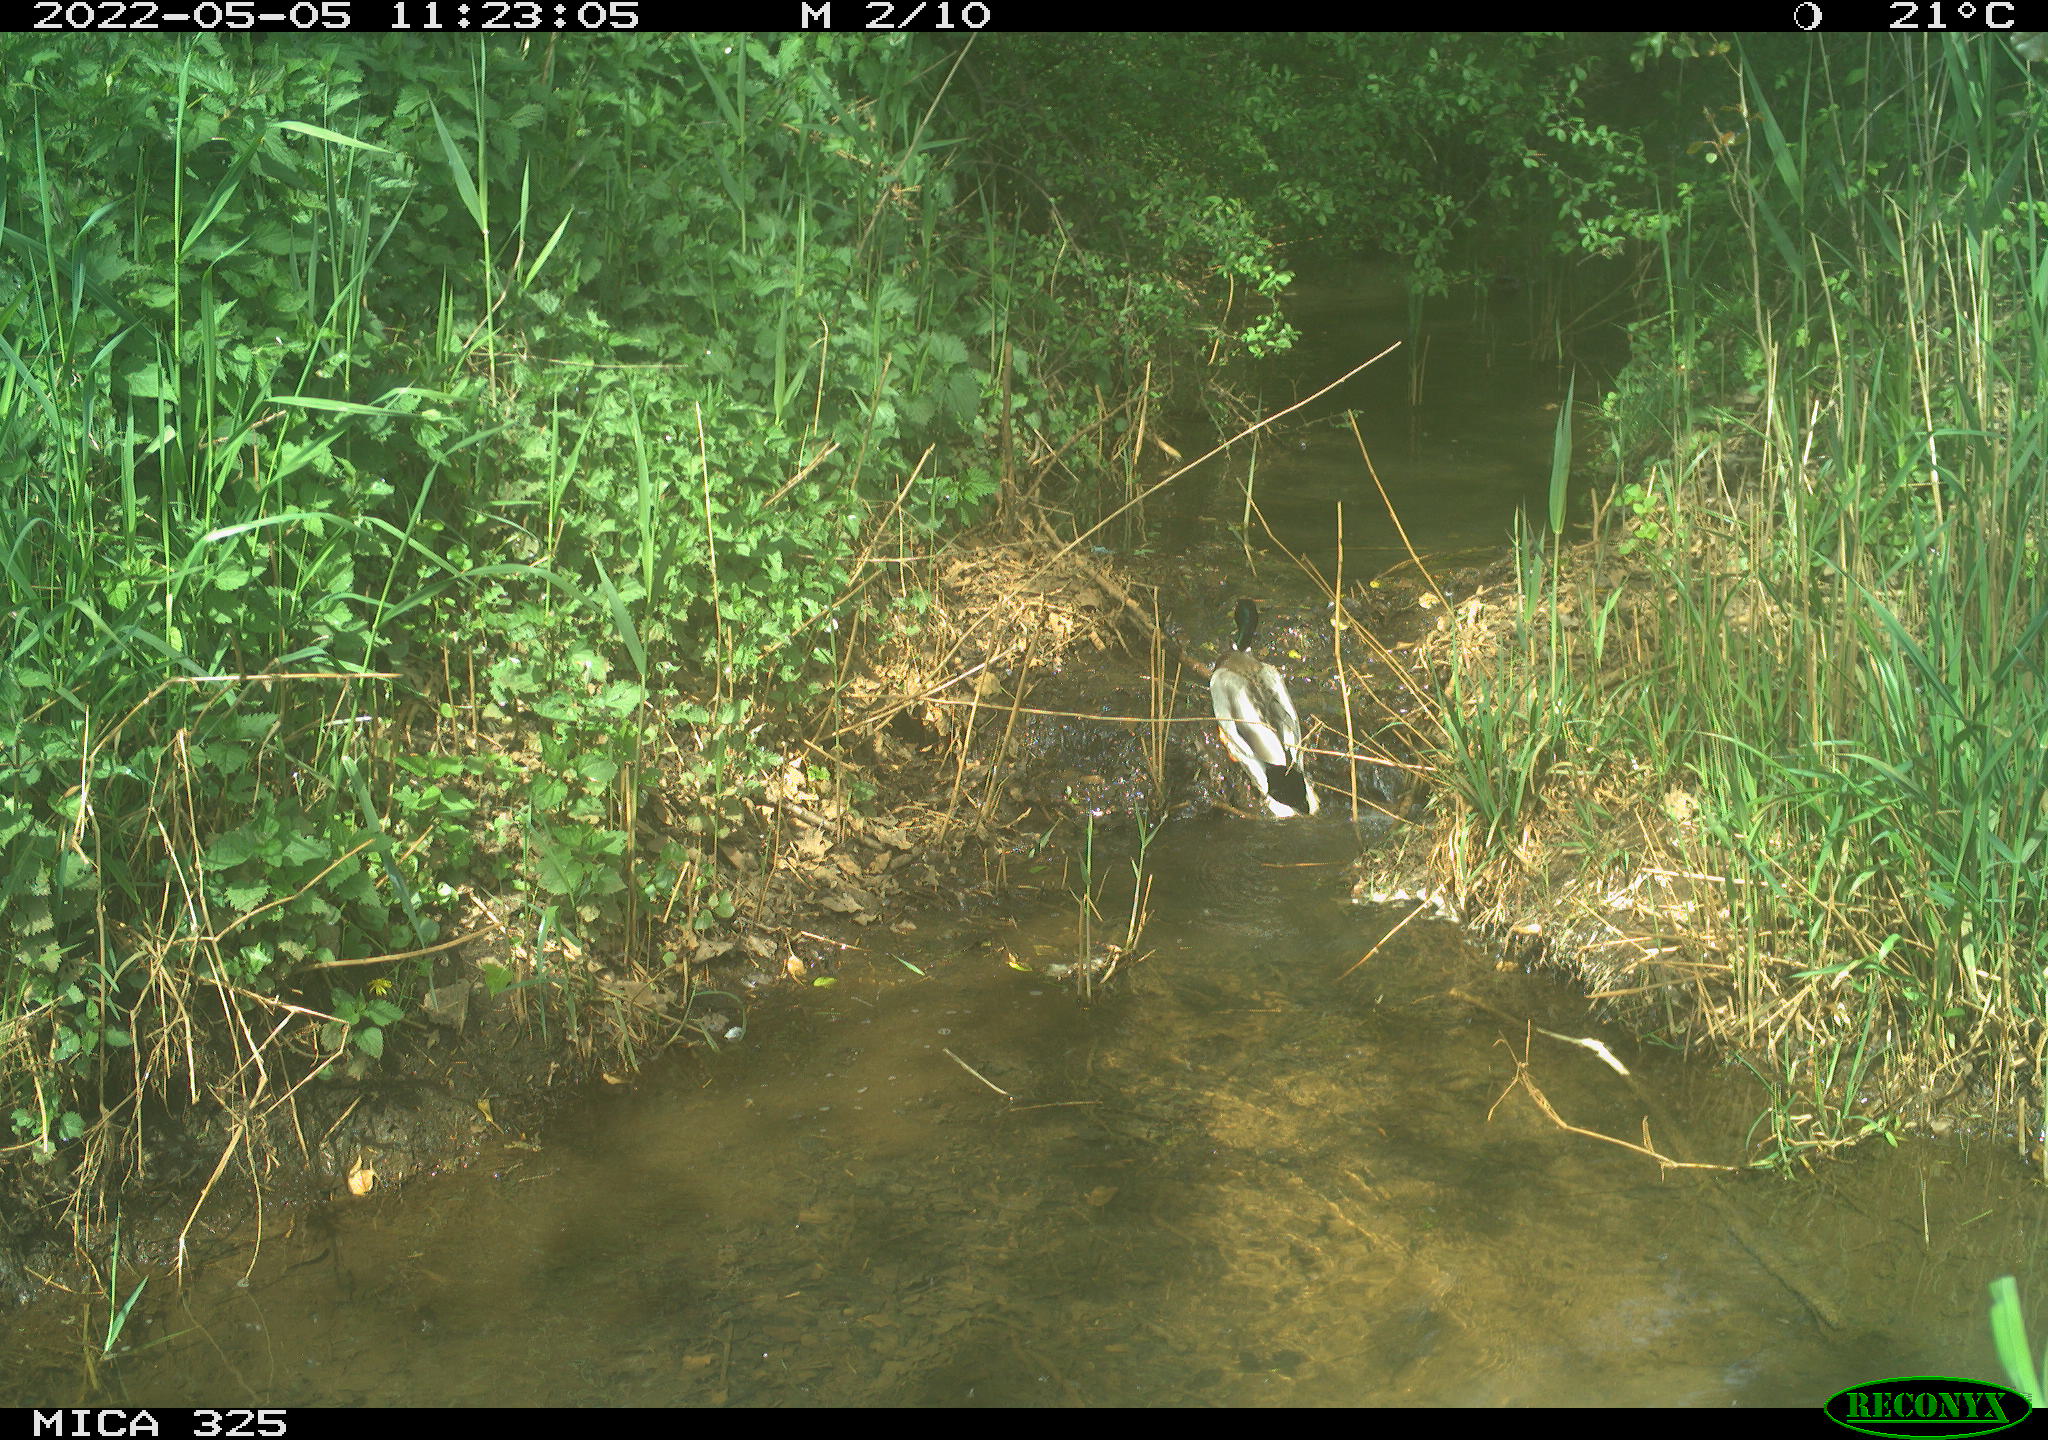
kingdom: Animalia
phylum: Chordata
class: Aves
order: Anseriformes
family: Anatidae
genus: Anas
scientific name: Anas platyrhynchos
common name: Mallard
